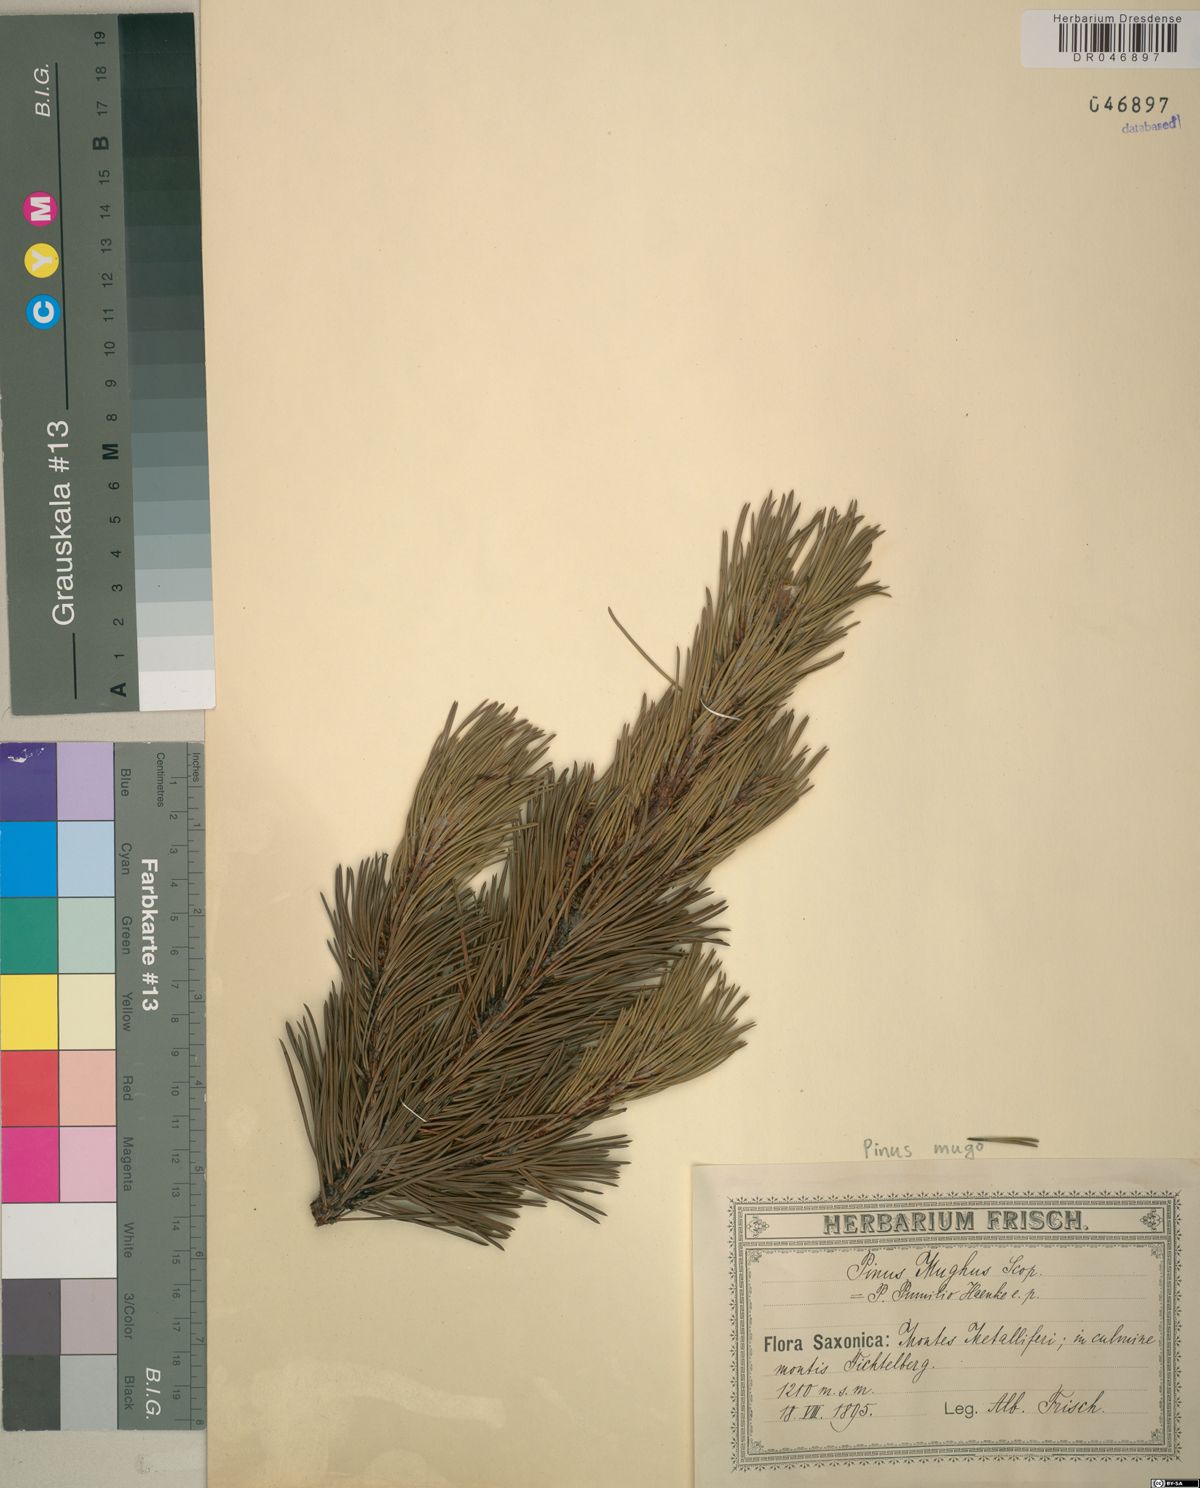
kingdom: Plantae
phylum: Tracheophyta
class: Pinopsida
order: Pinales
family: Pinaceae
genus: Pinus
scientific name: Pinus mugo
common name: Mugo pine
